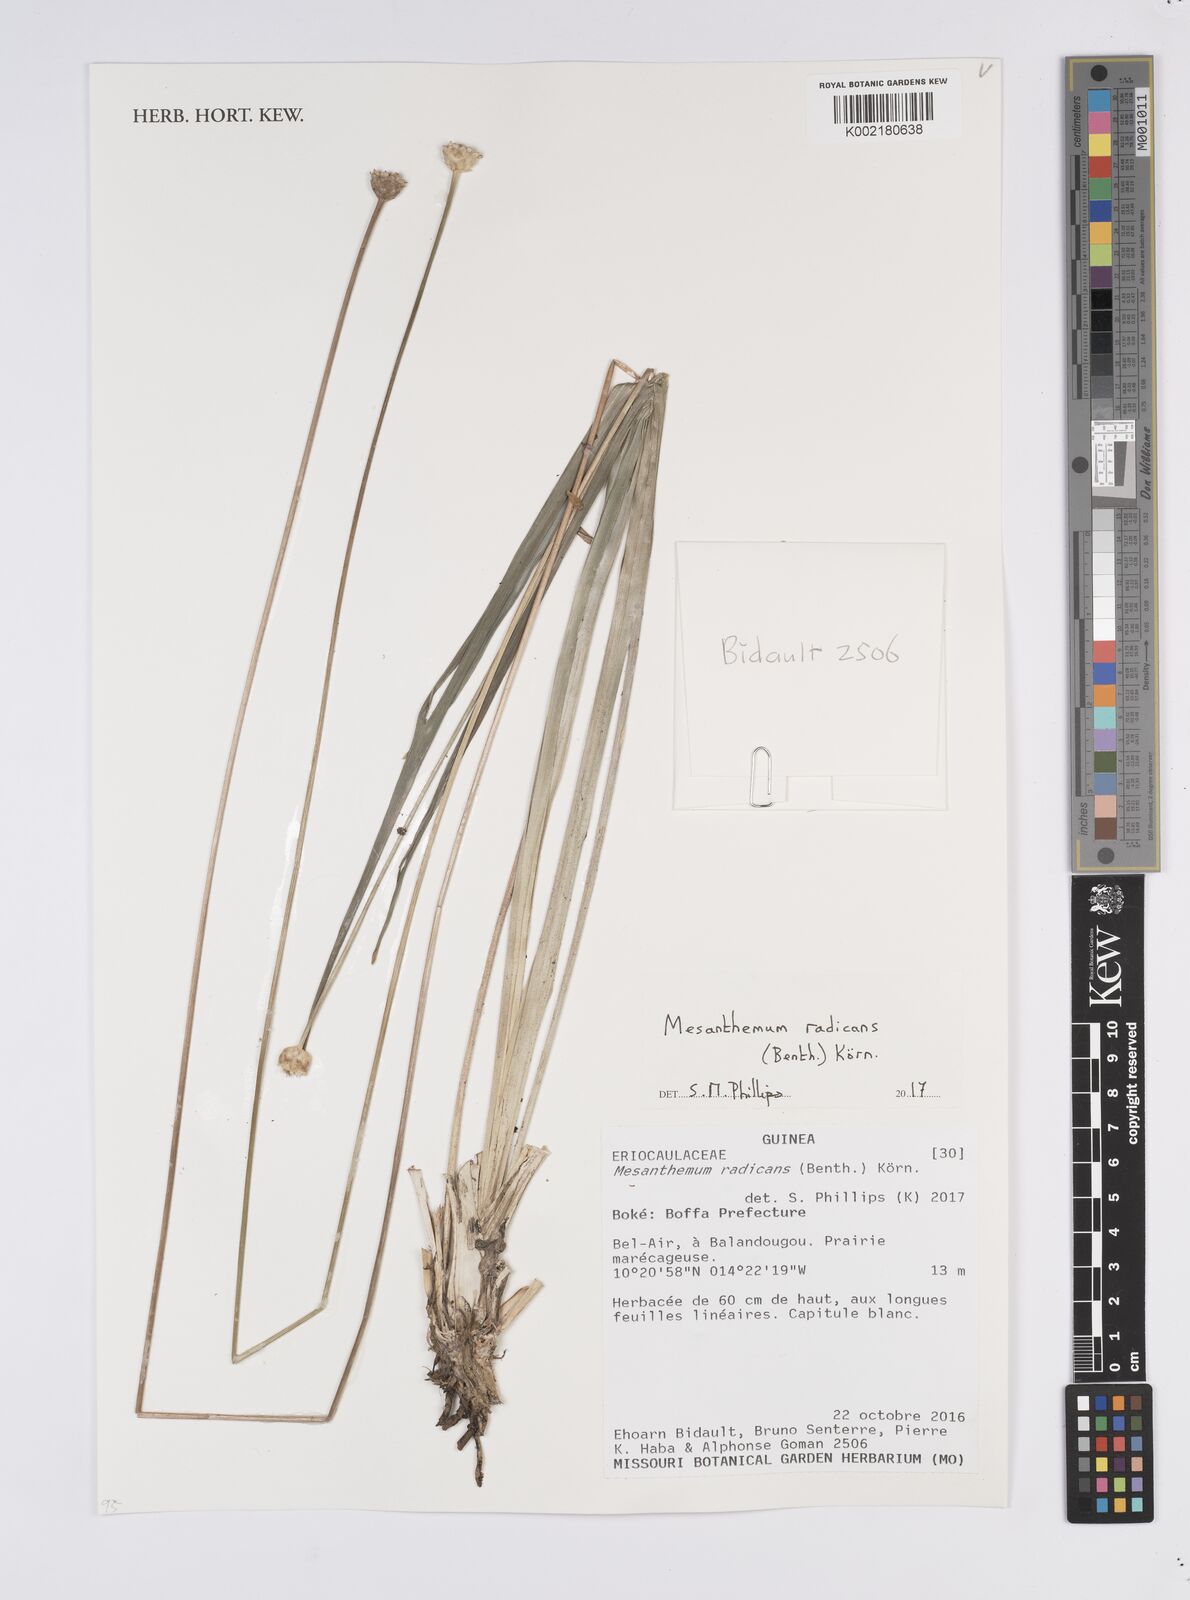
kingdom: Plantae
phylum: Tracheophyta
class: Liliopsida
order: Poales
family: Eriocaulaceae
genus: Mesanthemum
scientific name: Mesanthemum radicans
